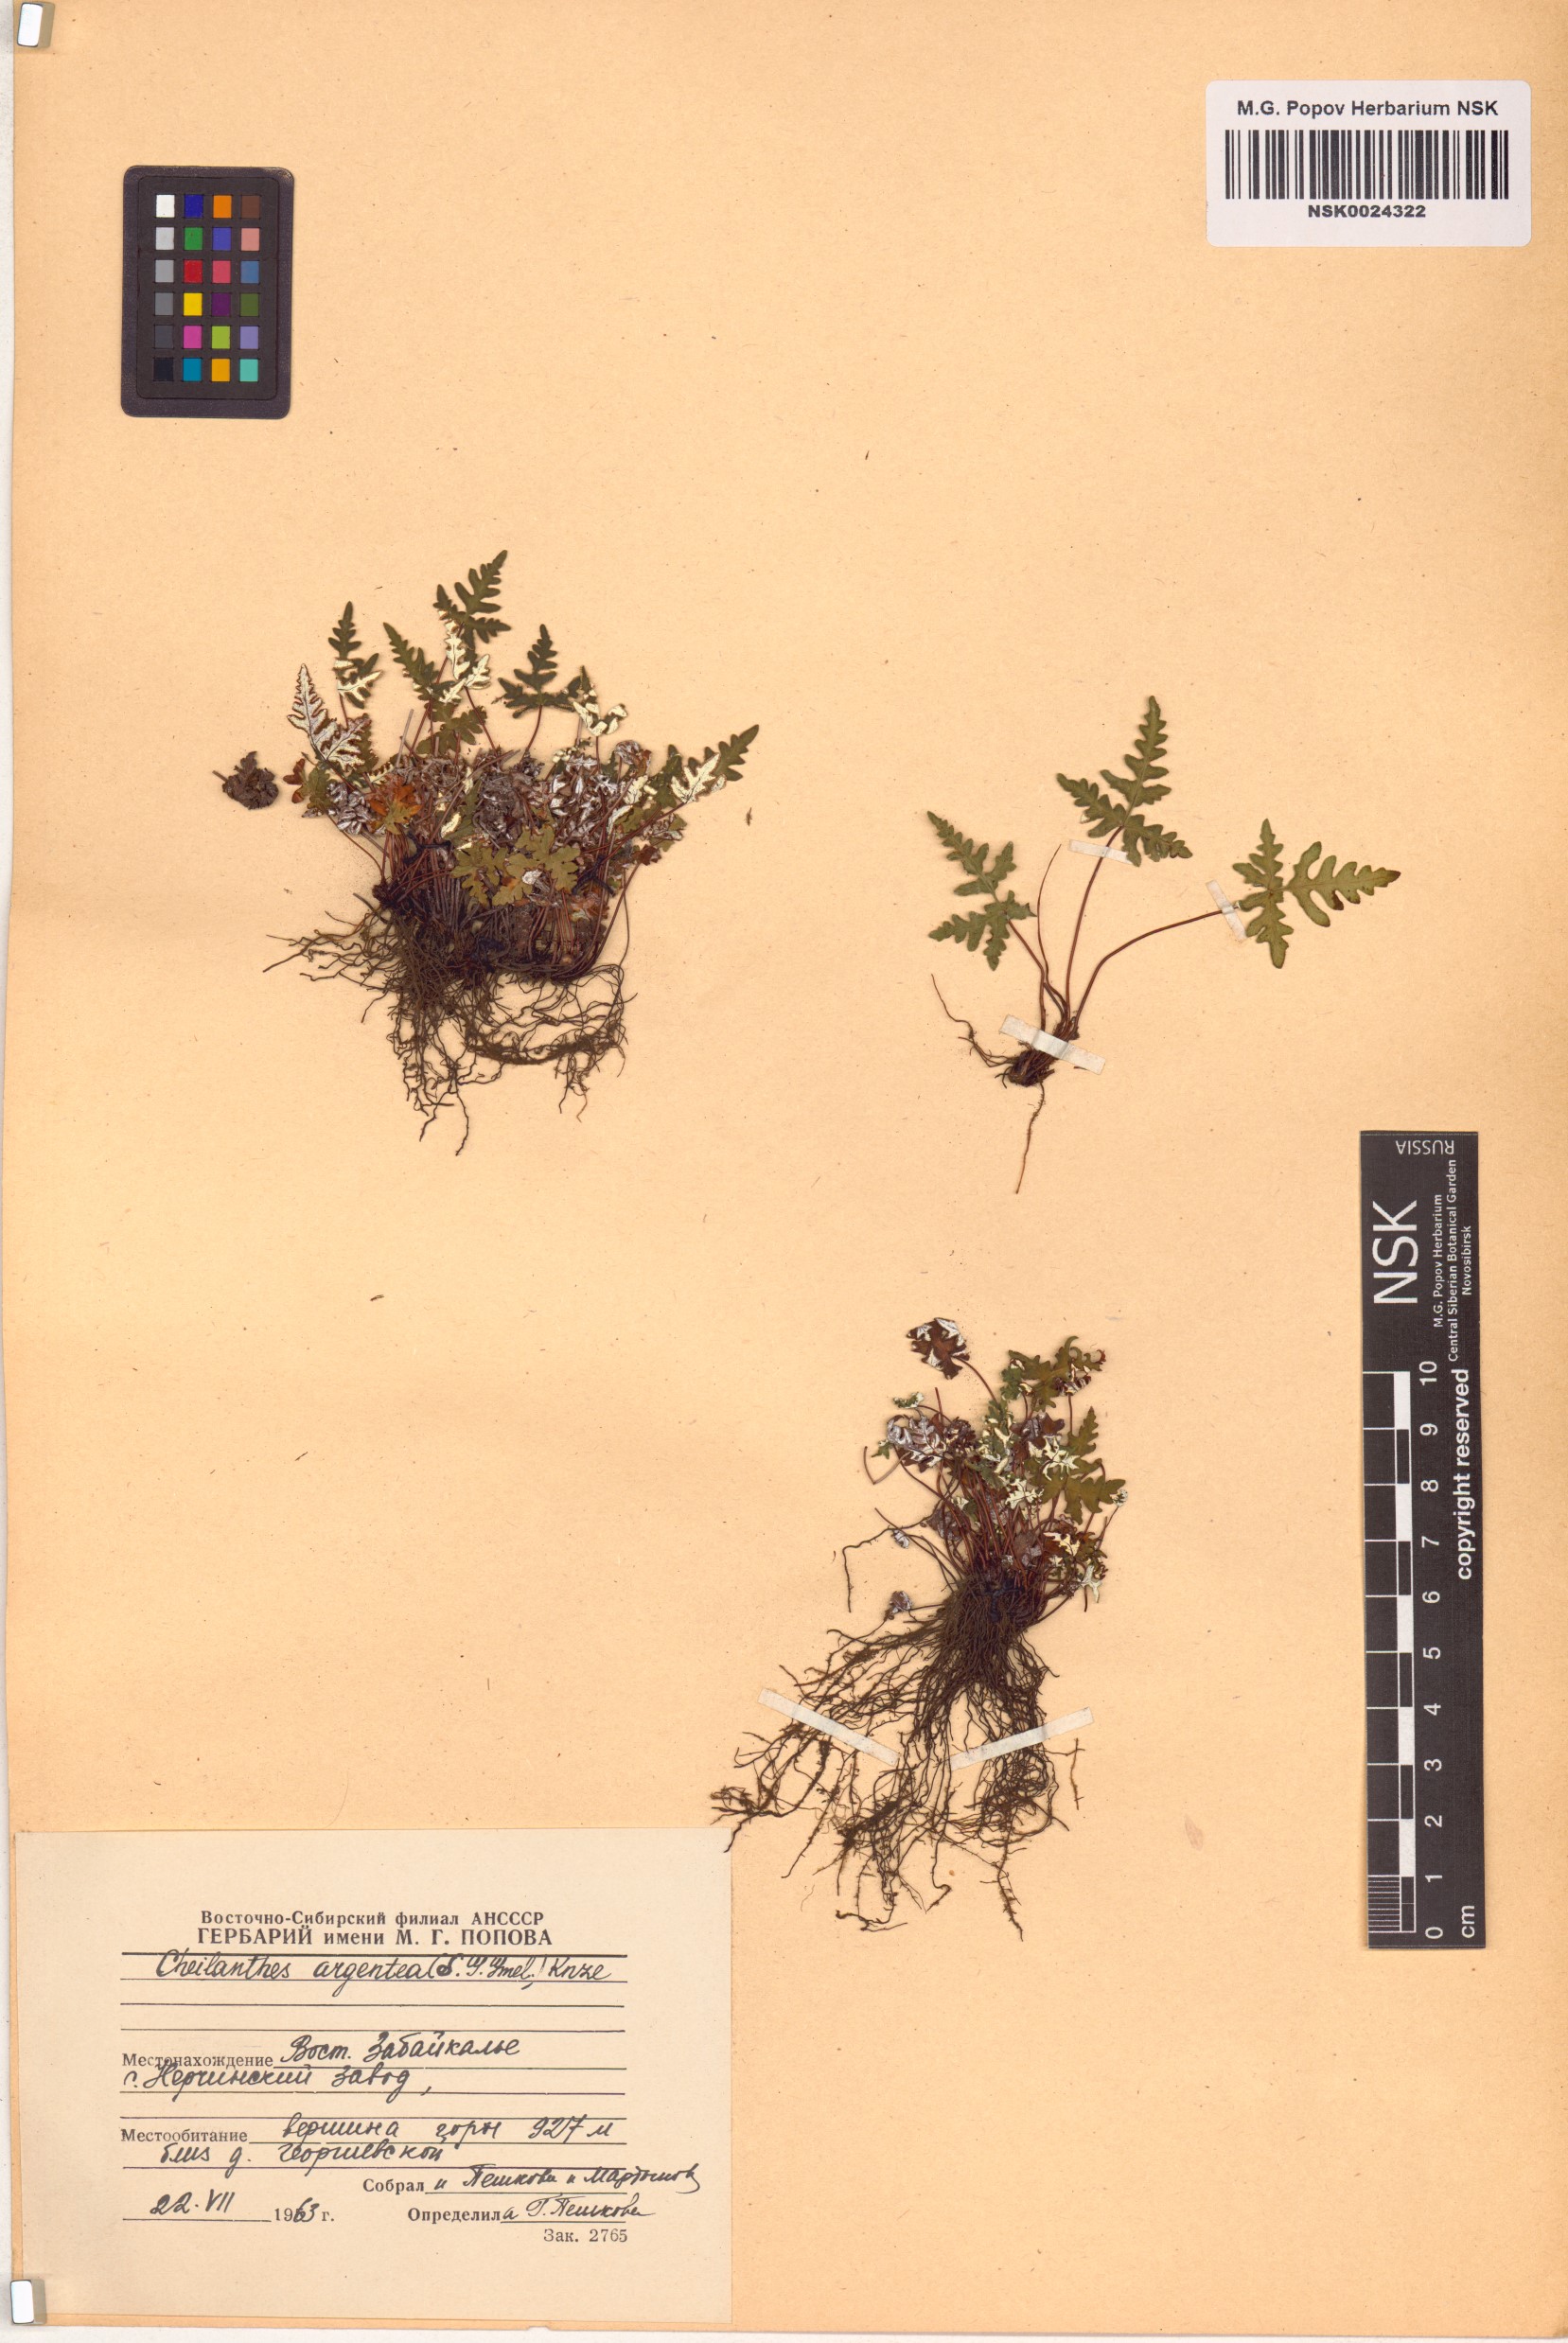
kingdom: Plantae
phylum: Tracheophyta
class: Polypodiopsida
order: Polypodiales
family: Pteridaceae
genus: Aleuritopteris
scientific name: Aleuritopteris argentea
